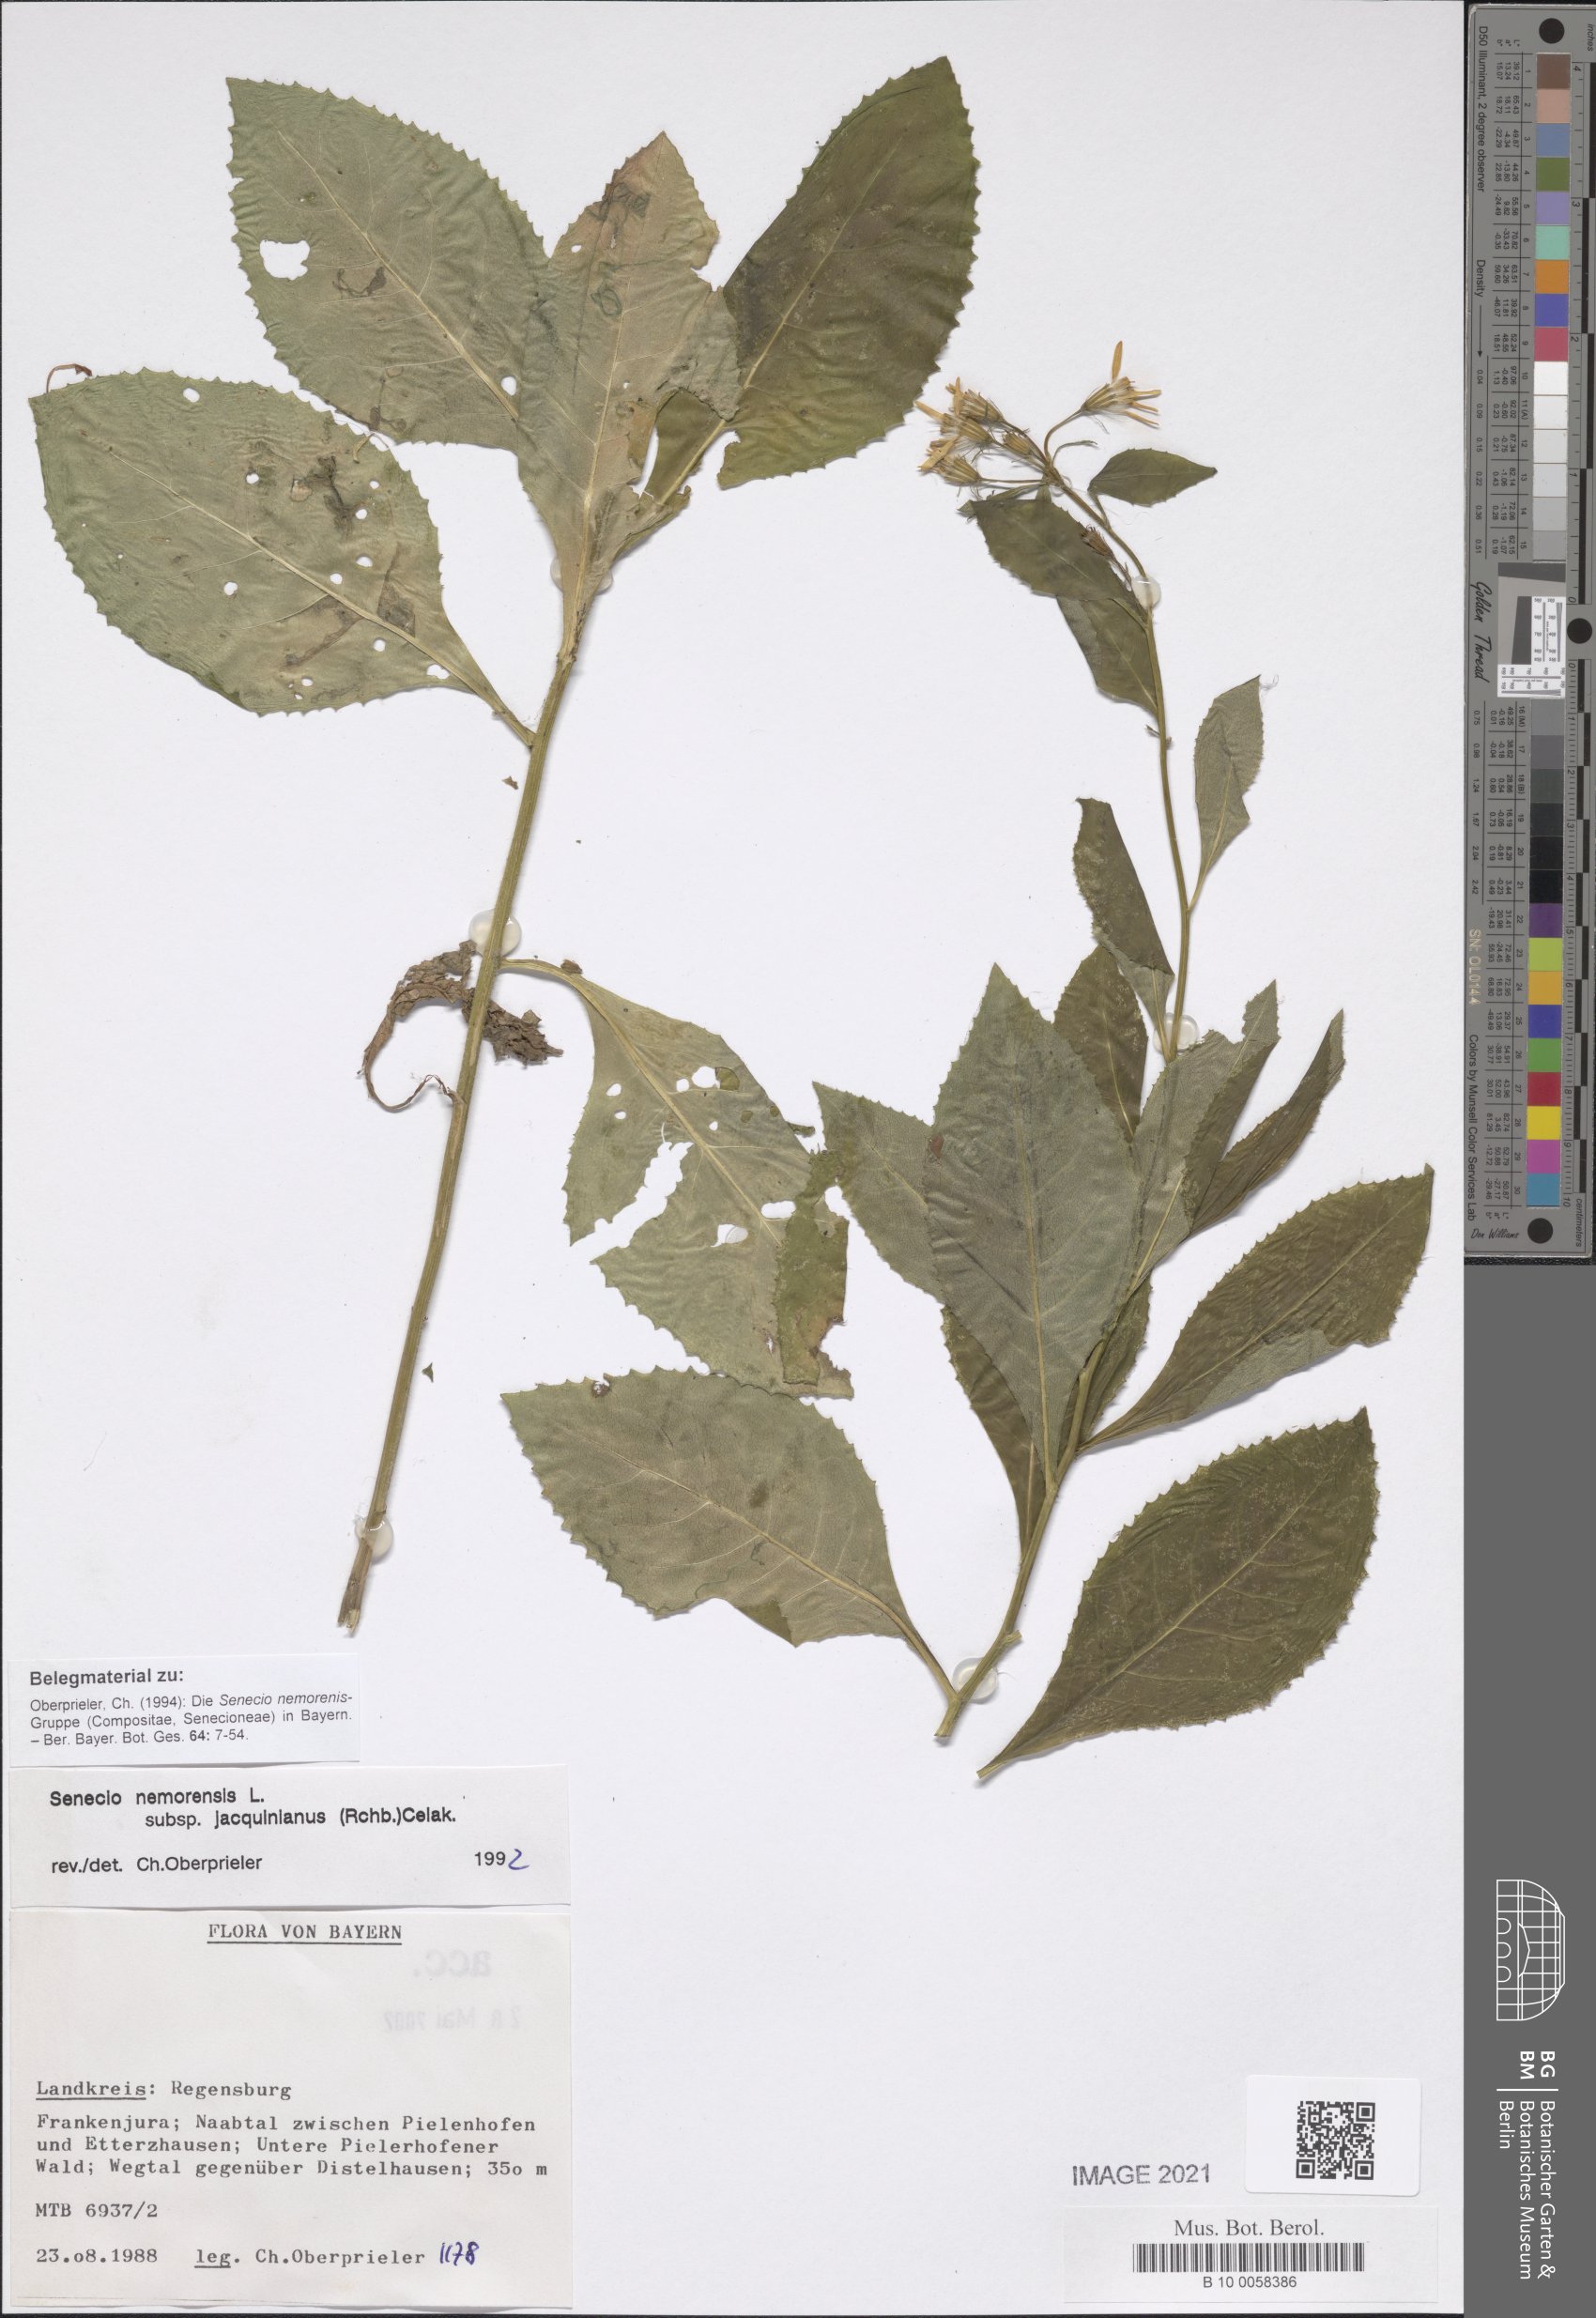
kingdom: Plantae
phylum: Tracheophyta
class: Magnoliopsida
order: Asterales
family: Asteraceae
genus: Senecio
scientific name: Senecio germanicus
